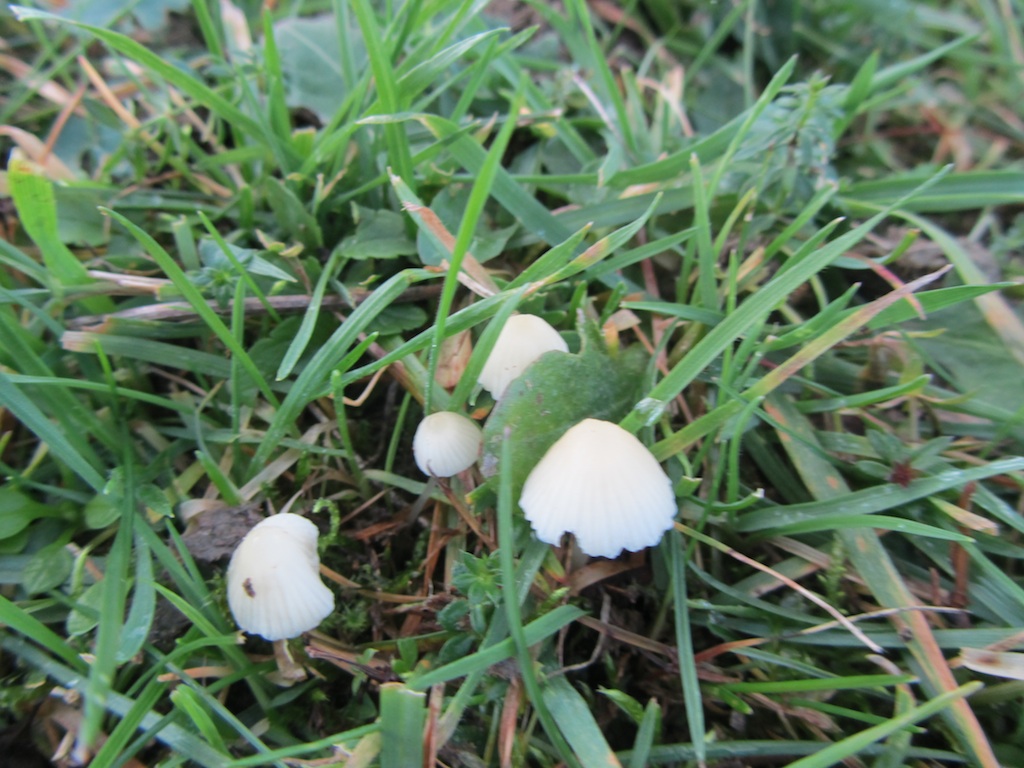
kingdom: Fungi
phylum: Basidiomycota
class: Agaricomycetes
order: Agaricales
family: Mycenaceae
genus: Atheniella
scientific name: Atheniella flavoalba
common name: gulhvid huesvamp
